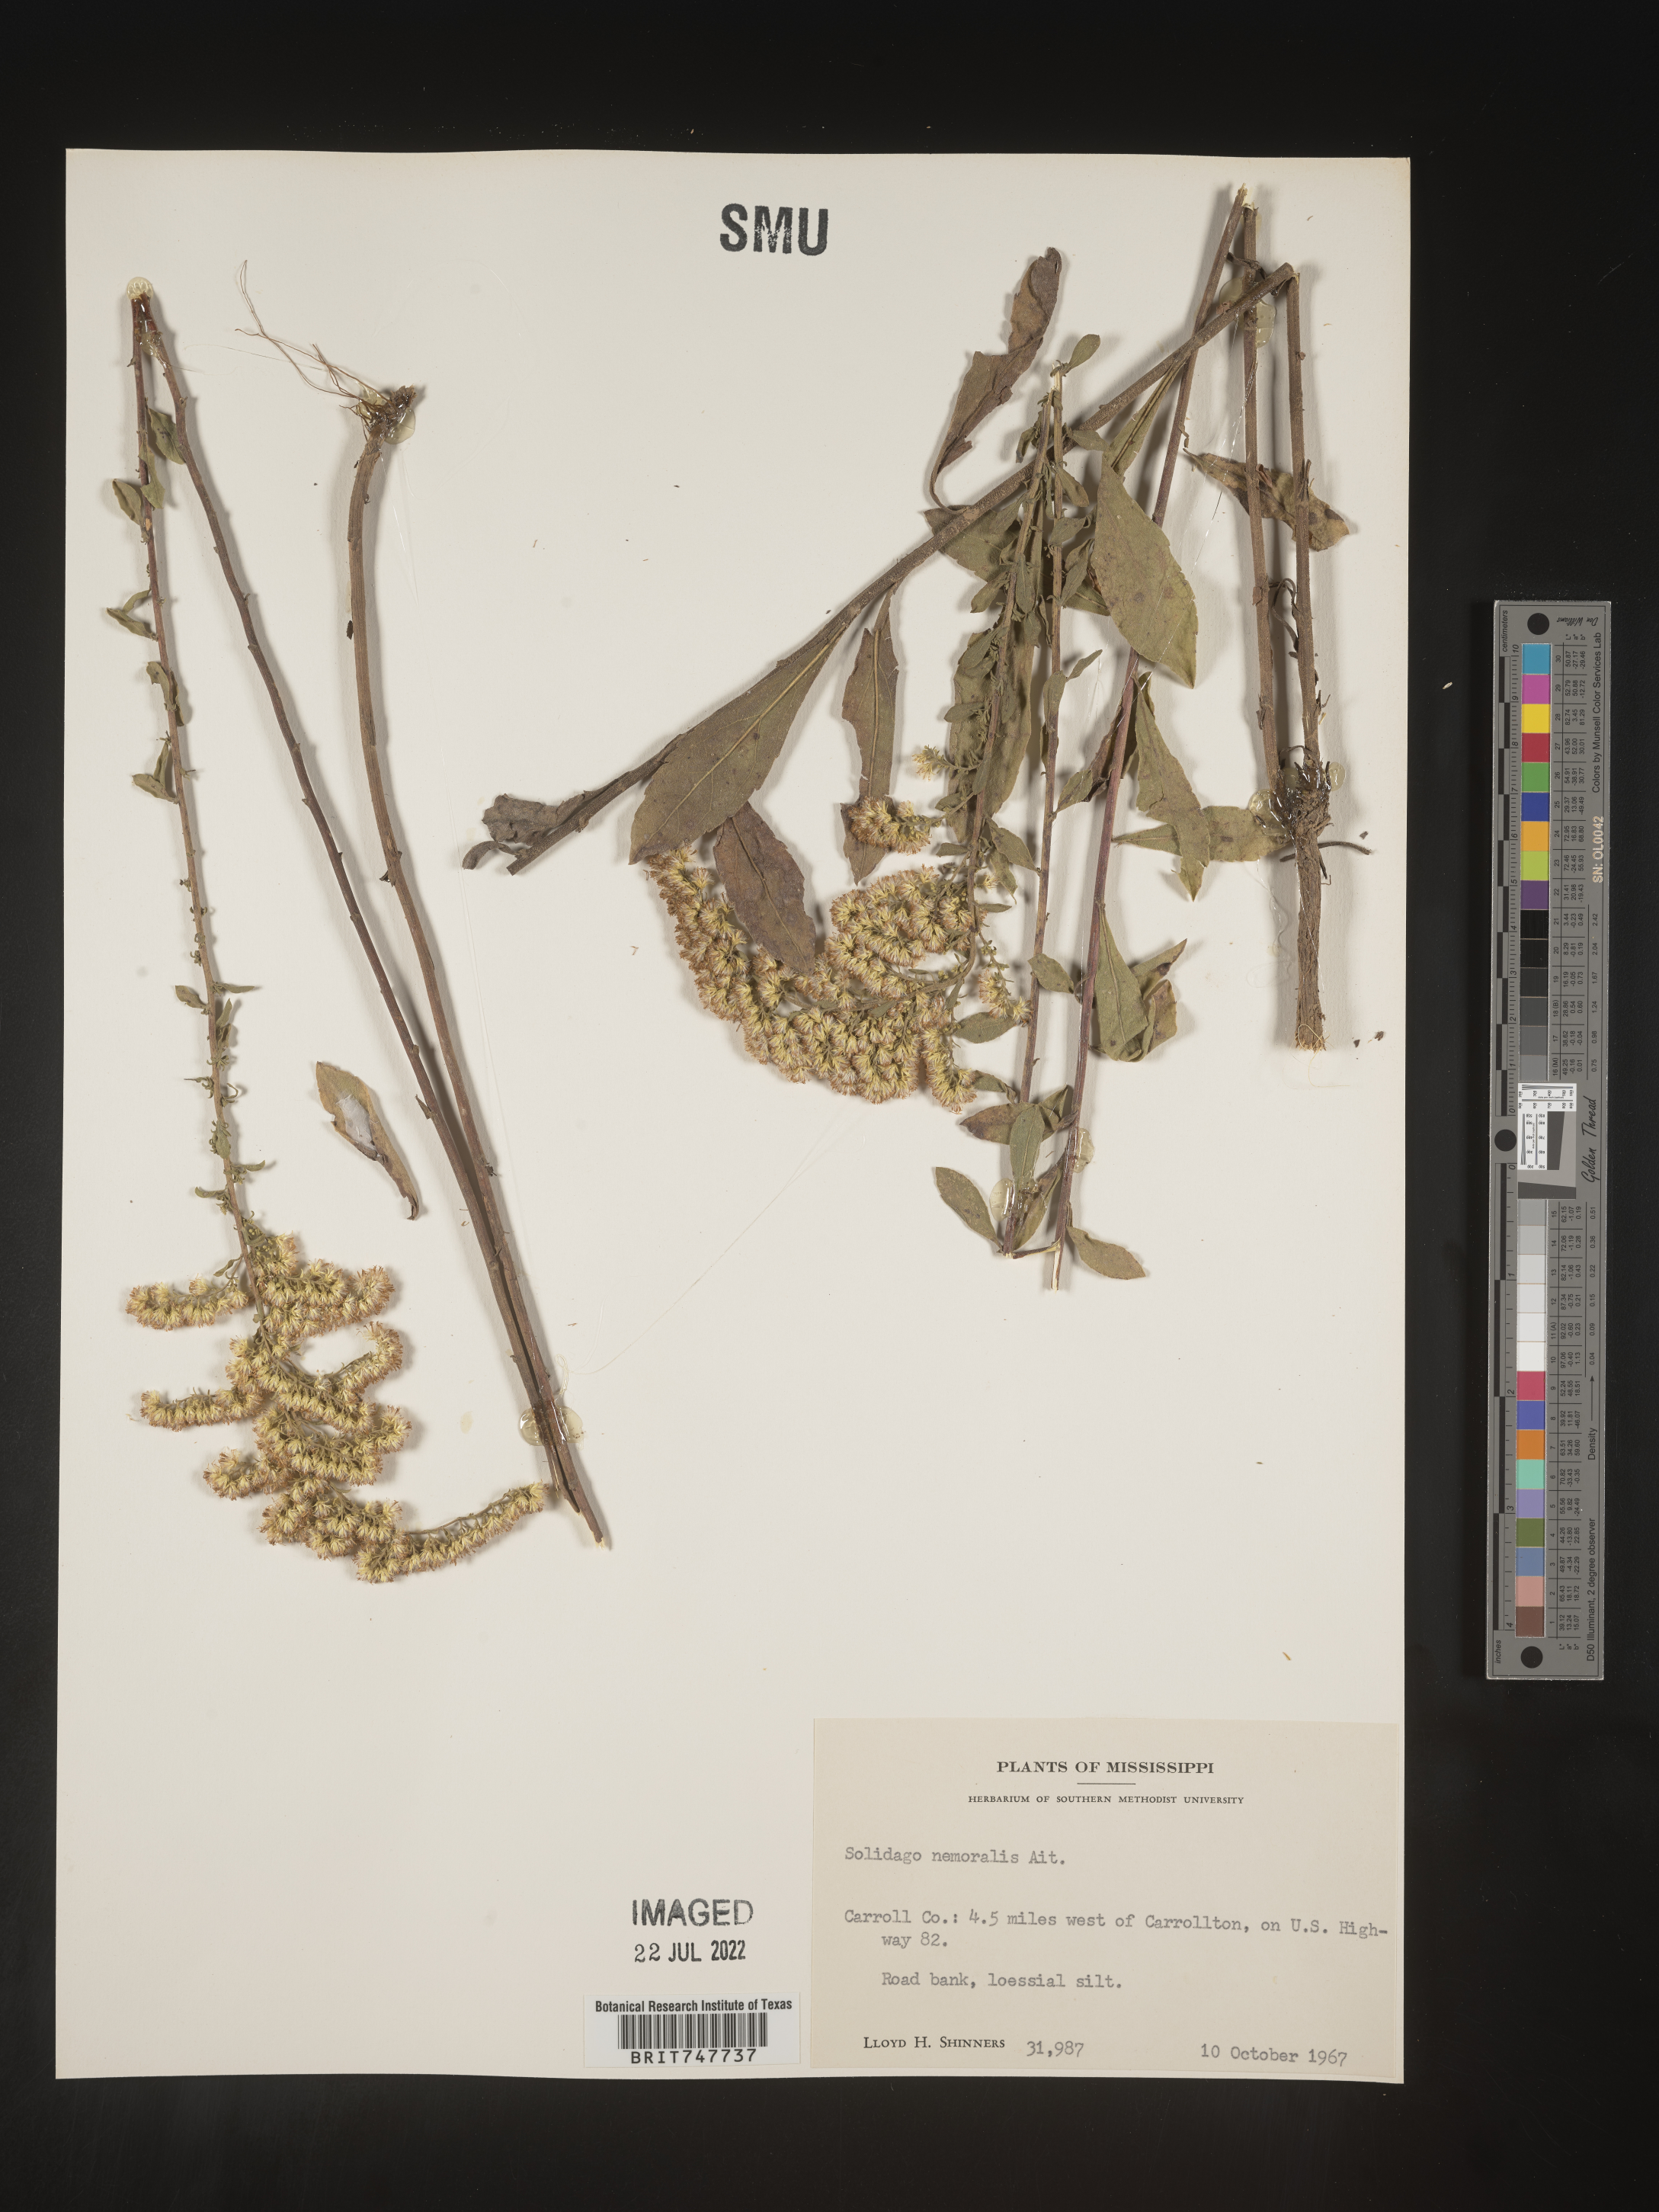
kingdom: Plantae
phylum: Tracheophyta
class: Magnoliopsida
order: Asterales
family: Asteraceae
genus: Solidago
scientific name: Solidago nemoralis
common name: Grey goldenrod
